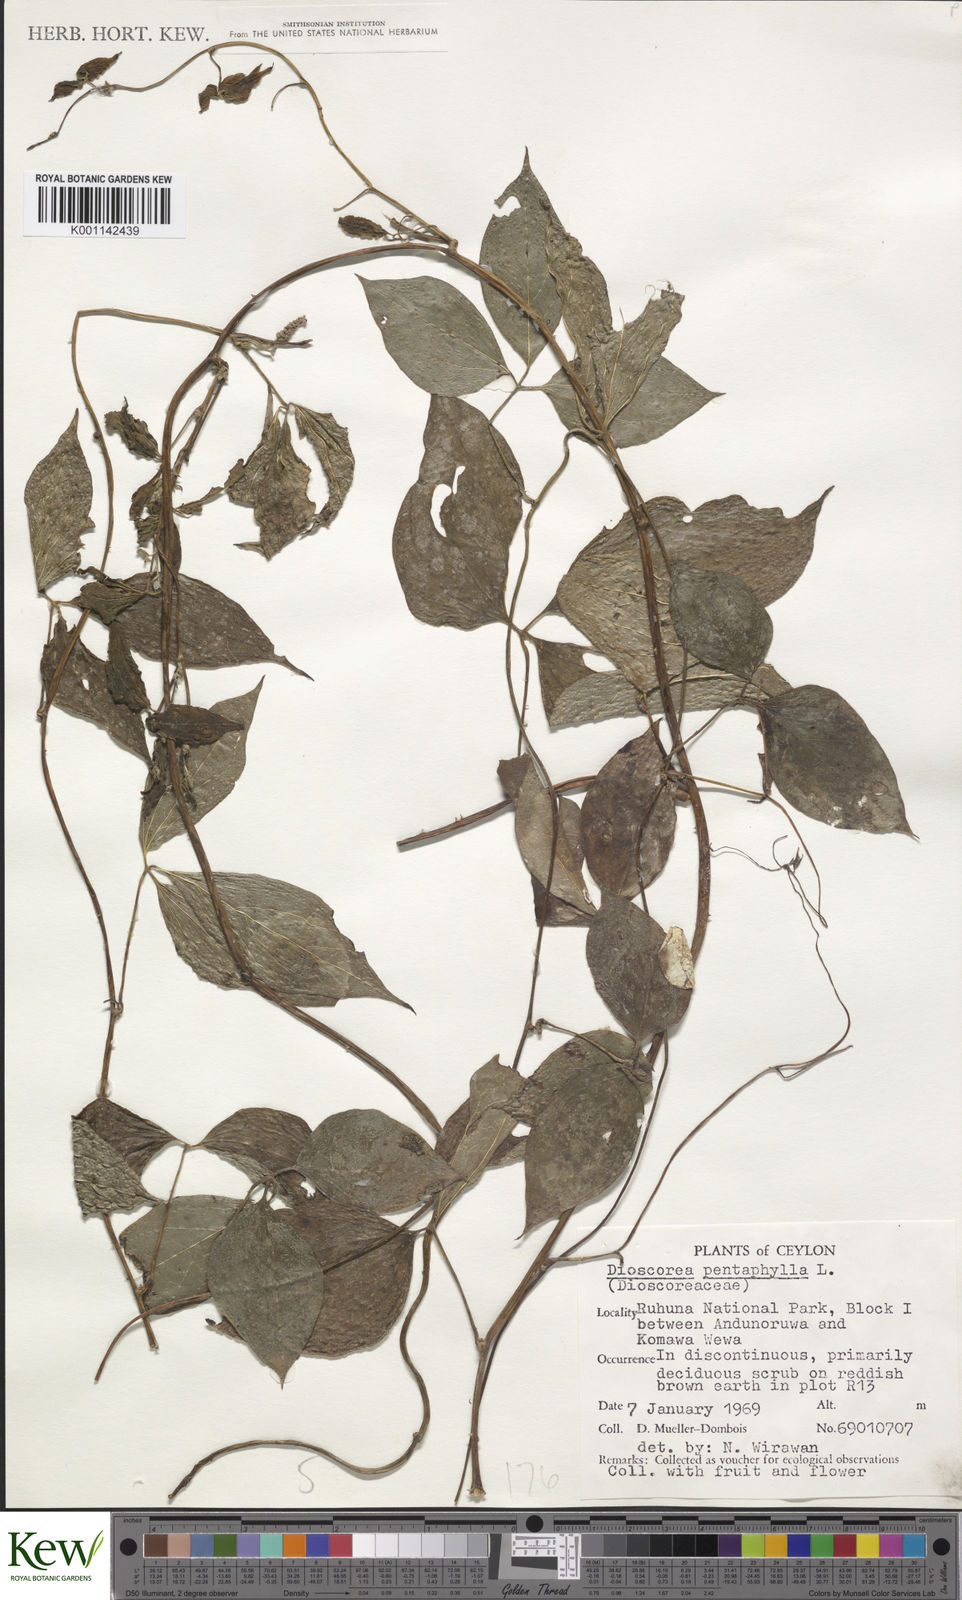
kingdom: Plantae
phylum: Tracheophyta
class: Liliopsida
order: Dioscoreales
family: Dioscoreaceae
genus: Dioscorea
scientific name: Dioscorea pentaphylla
